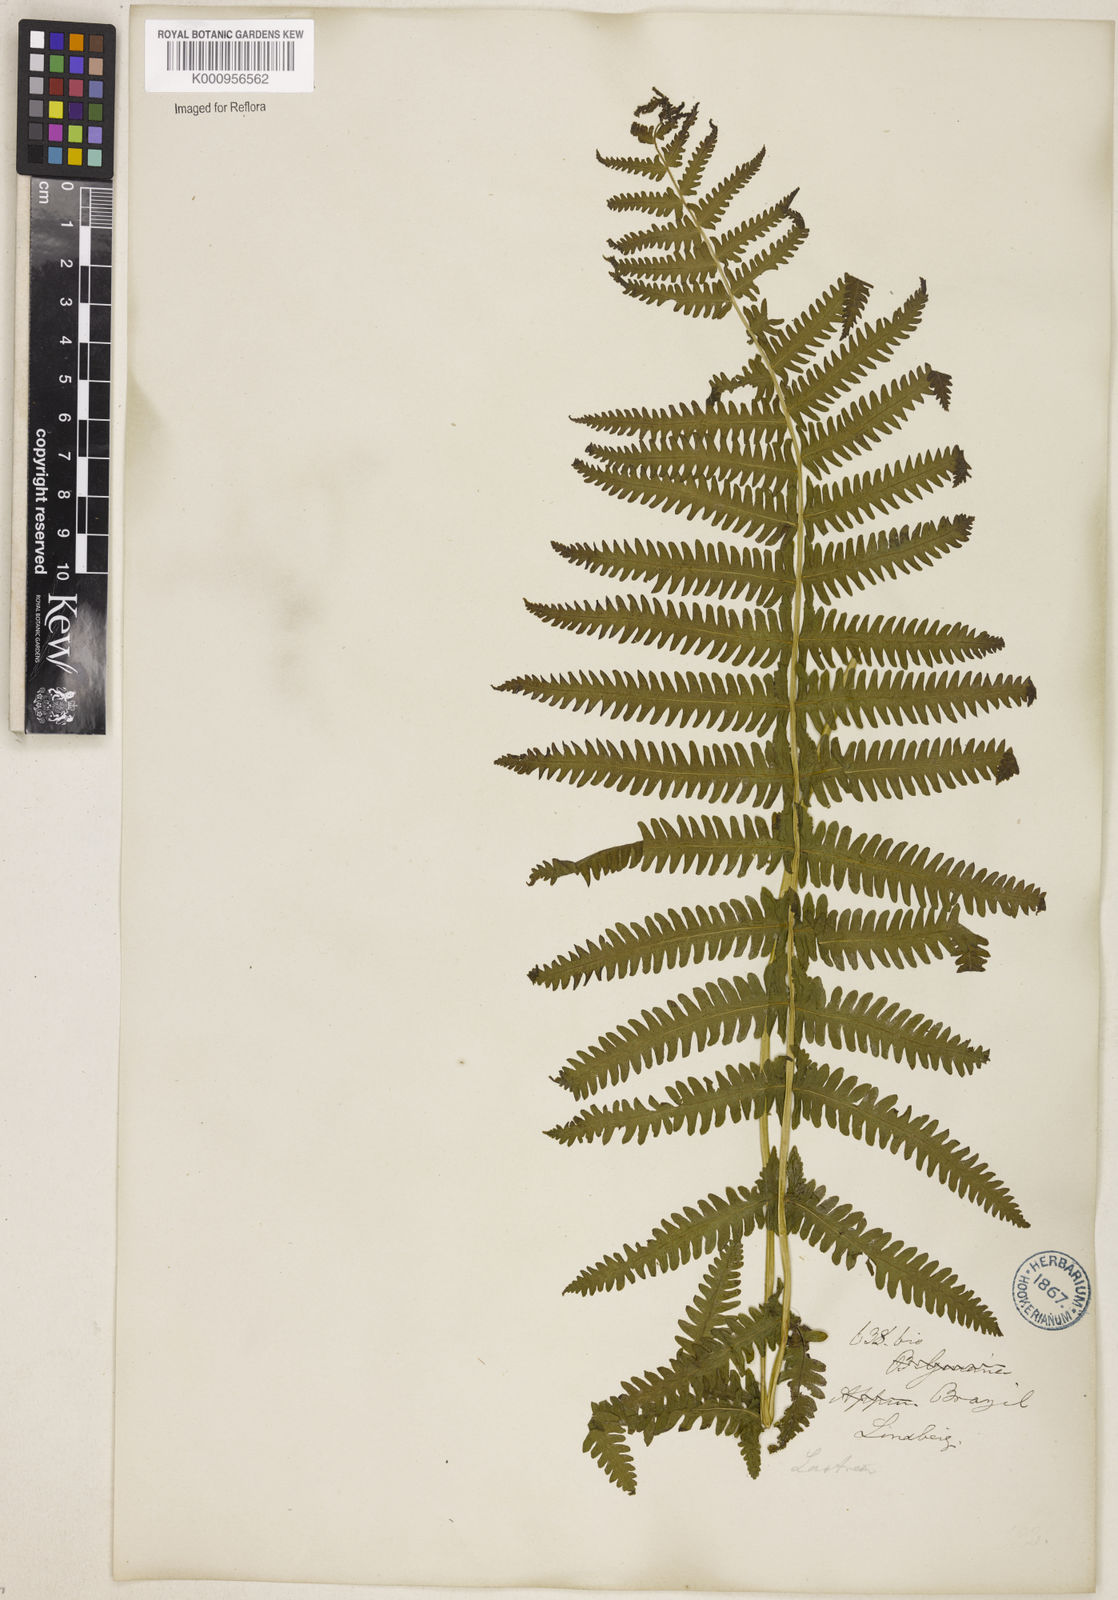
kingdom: Plantae
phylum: Tracheophyta
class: Polypodiopsida
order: Polypodiales
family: Thelypteridaceae
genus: Christella
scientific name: Christella hispidula
